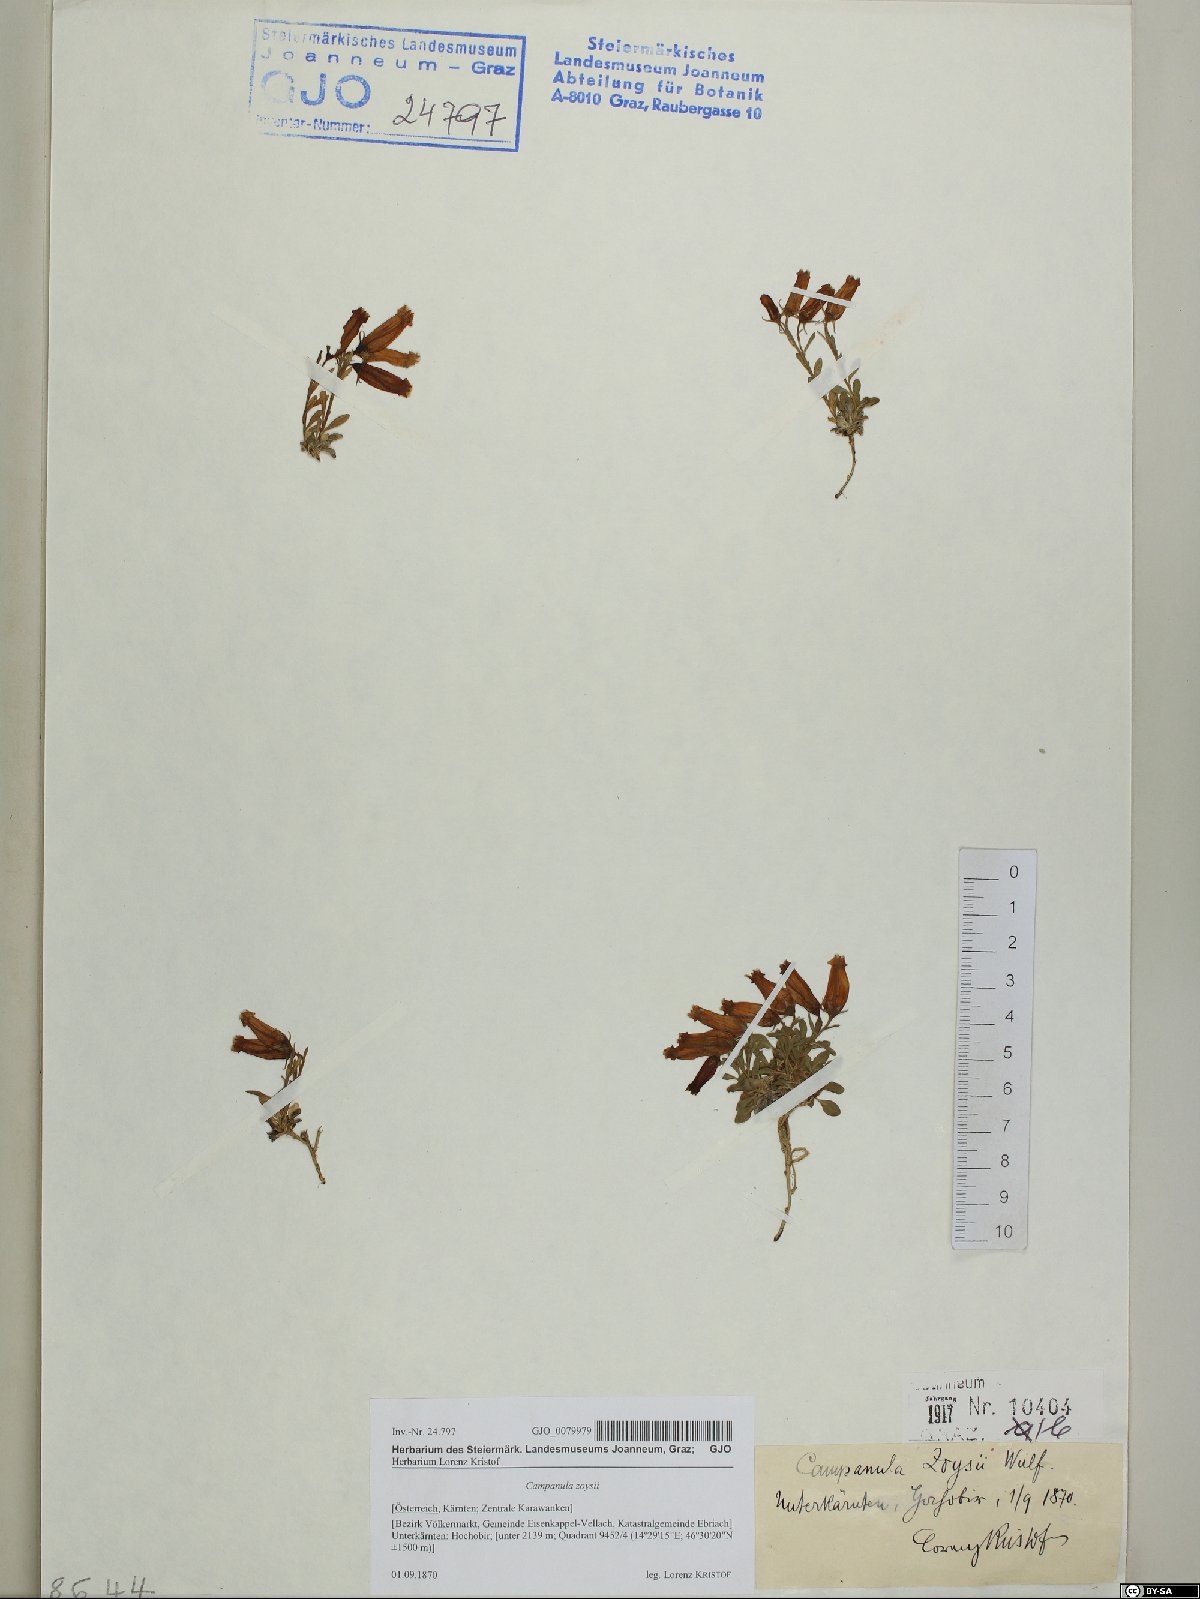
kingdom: Plantae
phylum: Tracheophyta
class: Magnoliopsida
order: Asterales
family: Campanulaceae
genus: Favratia
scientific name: Favratia zoysii
